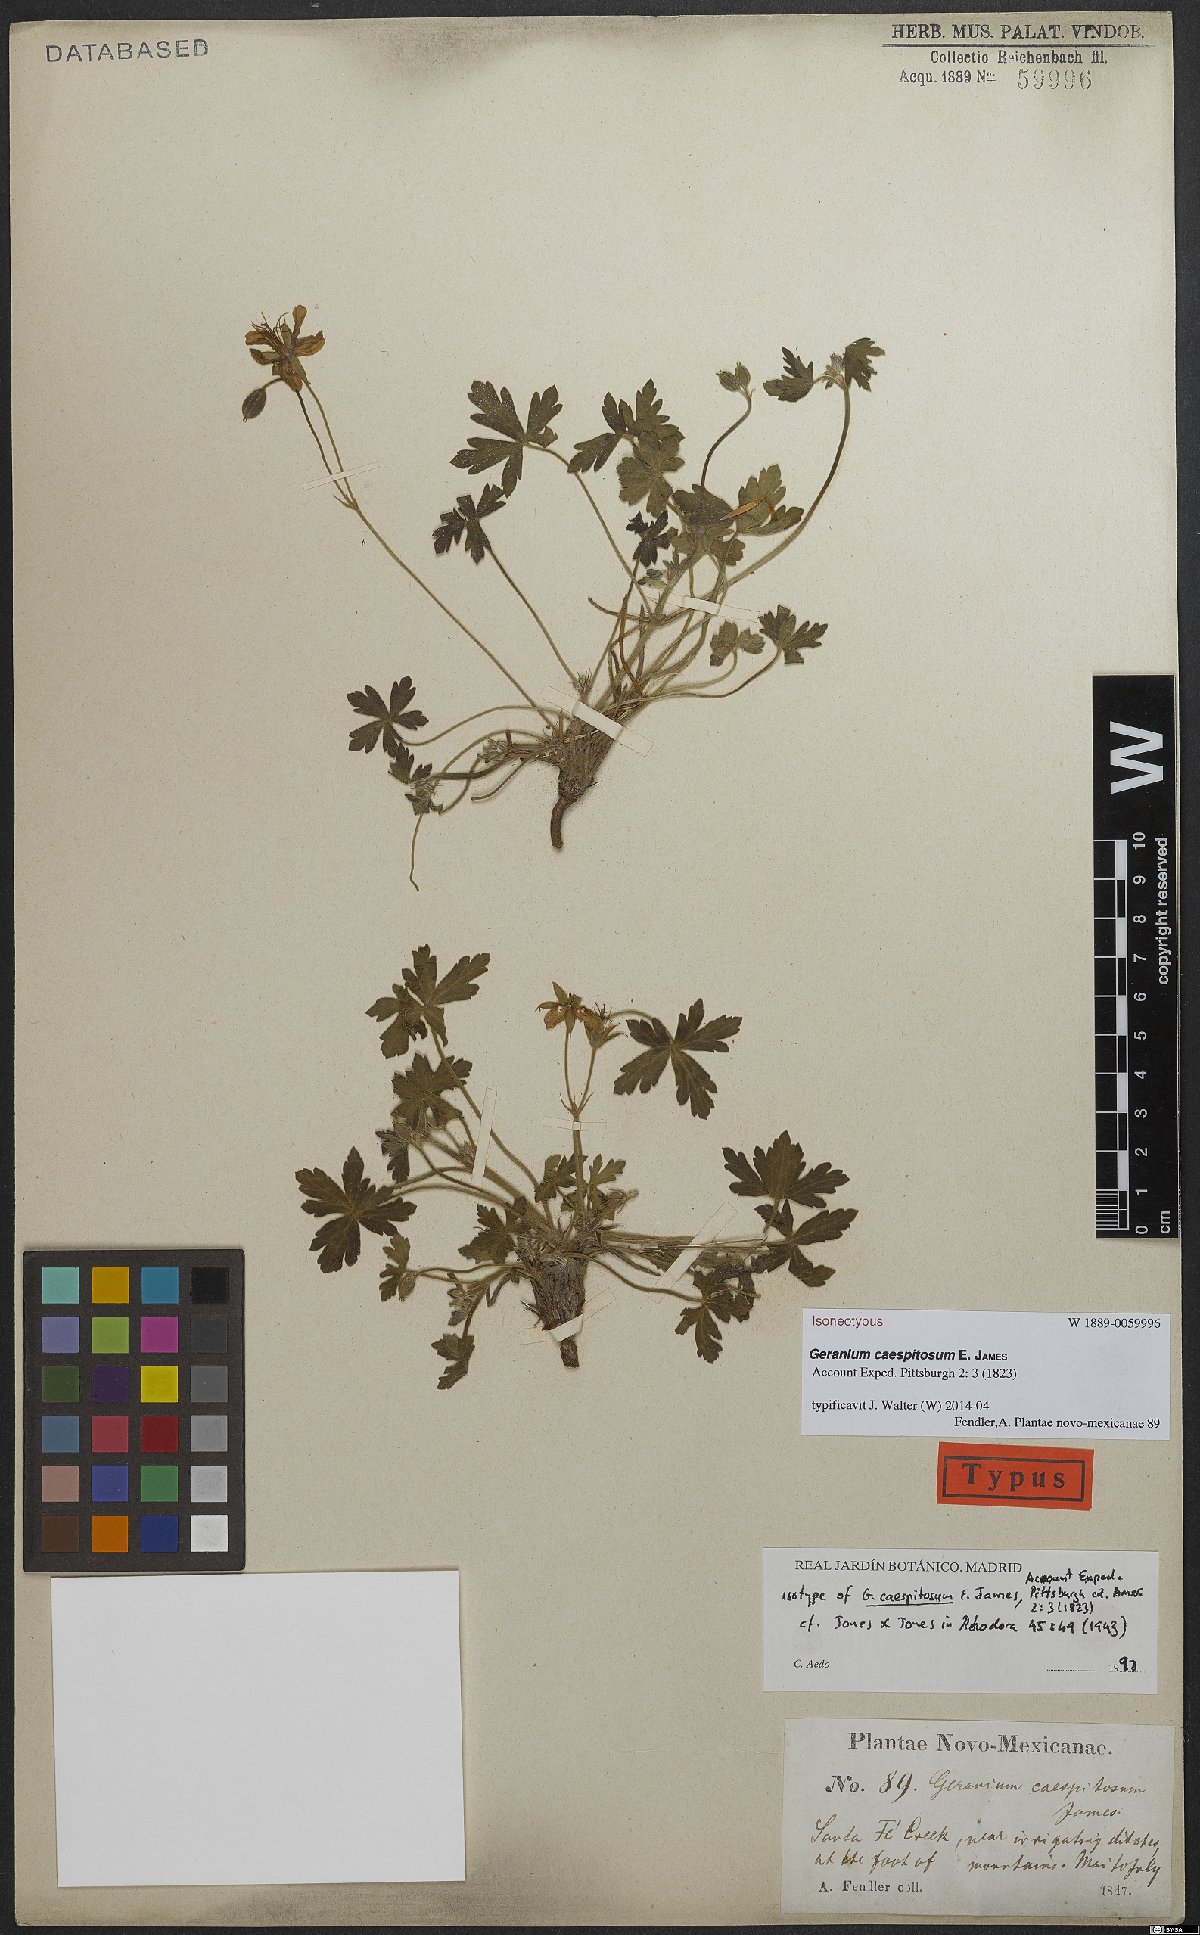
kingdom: Plantae
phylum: Tracheophyta
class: Magnoliopsida
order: Geraniales
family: Geraniaceae
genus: Geranium
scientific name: Geranium caespitosum
